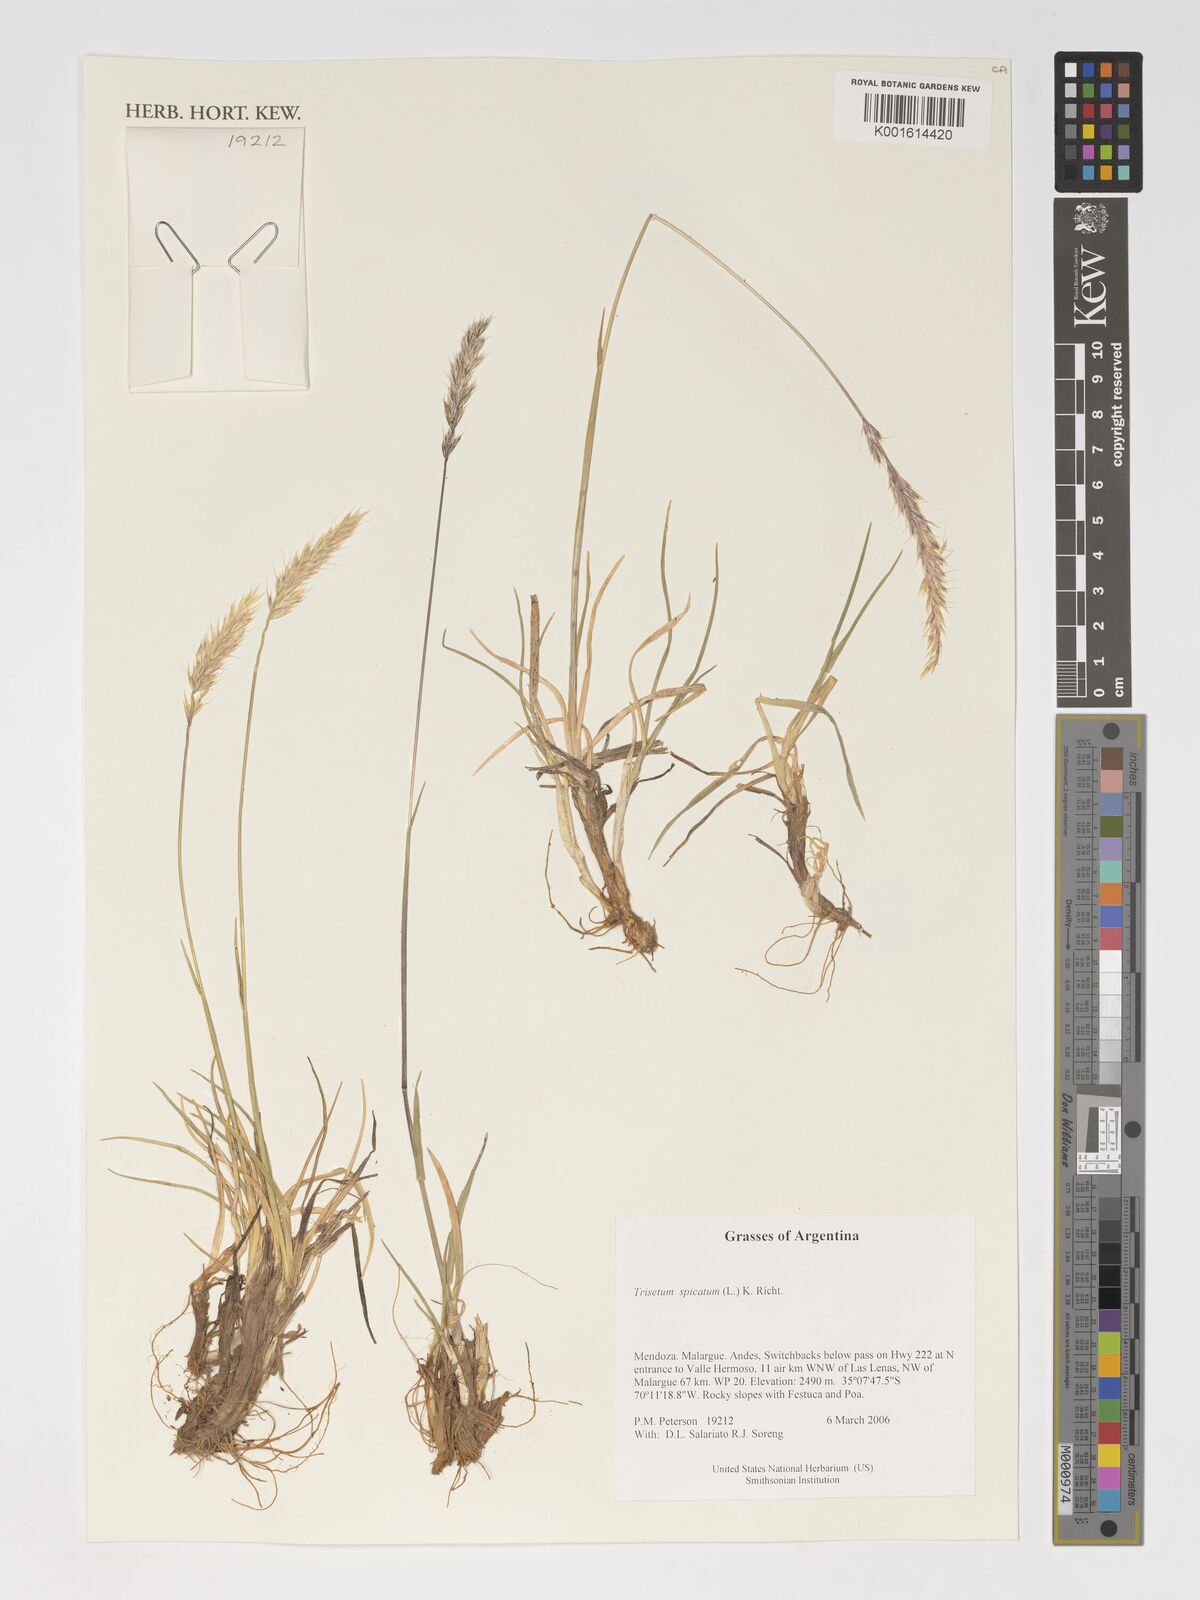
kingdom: Plantae
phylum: Tracheophyta
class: Liliopsida
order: Poales
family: Poaceae
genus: Koeleria
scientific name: Koeleria spicata
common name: Mountain trisetum
